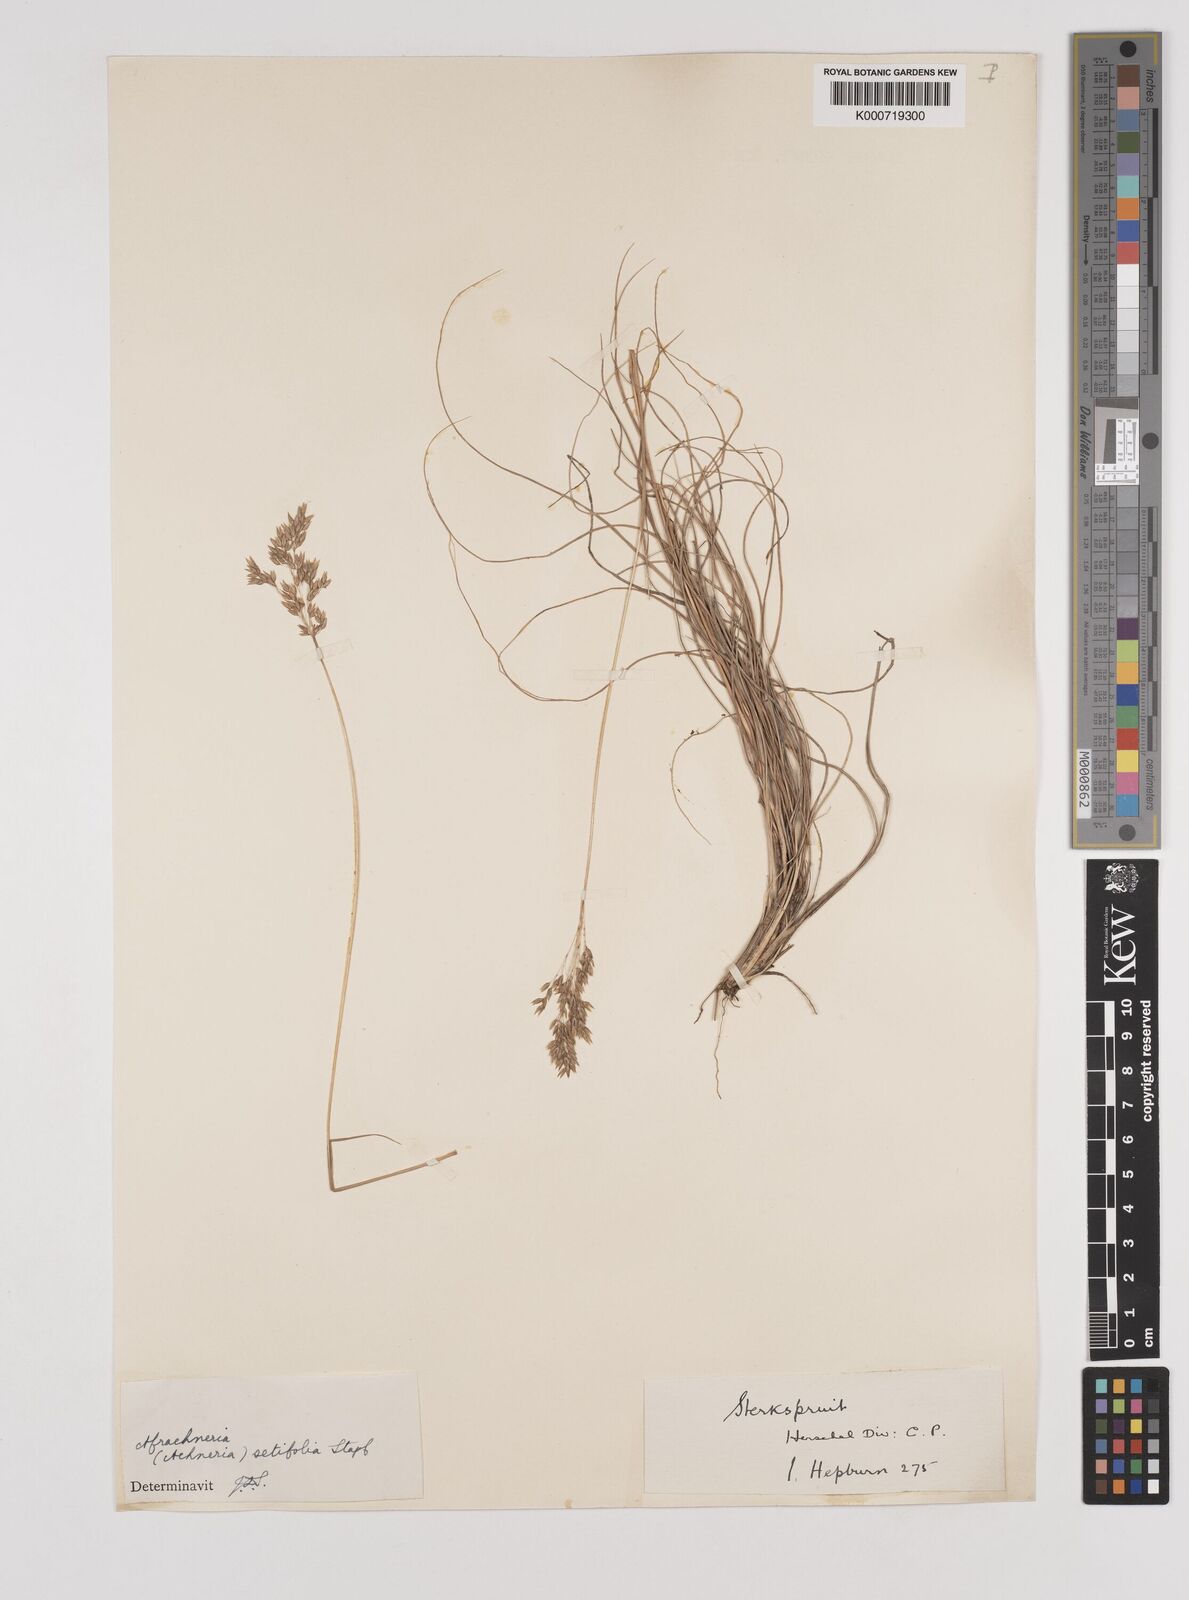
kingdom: Plantae
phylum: Tracheophyta
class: Liliopsida
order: Poales
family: Poaceae
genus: Pentameris
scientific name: Pentameris setifolia
